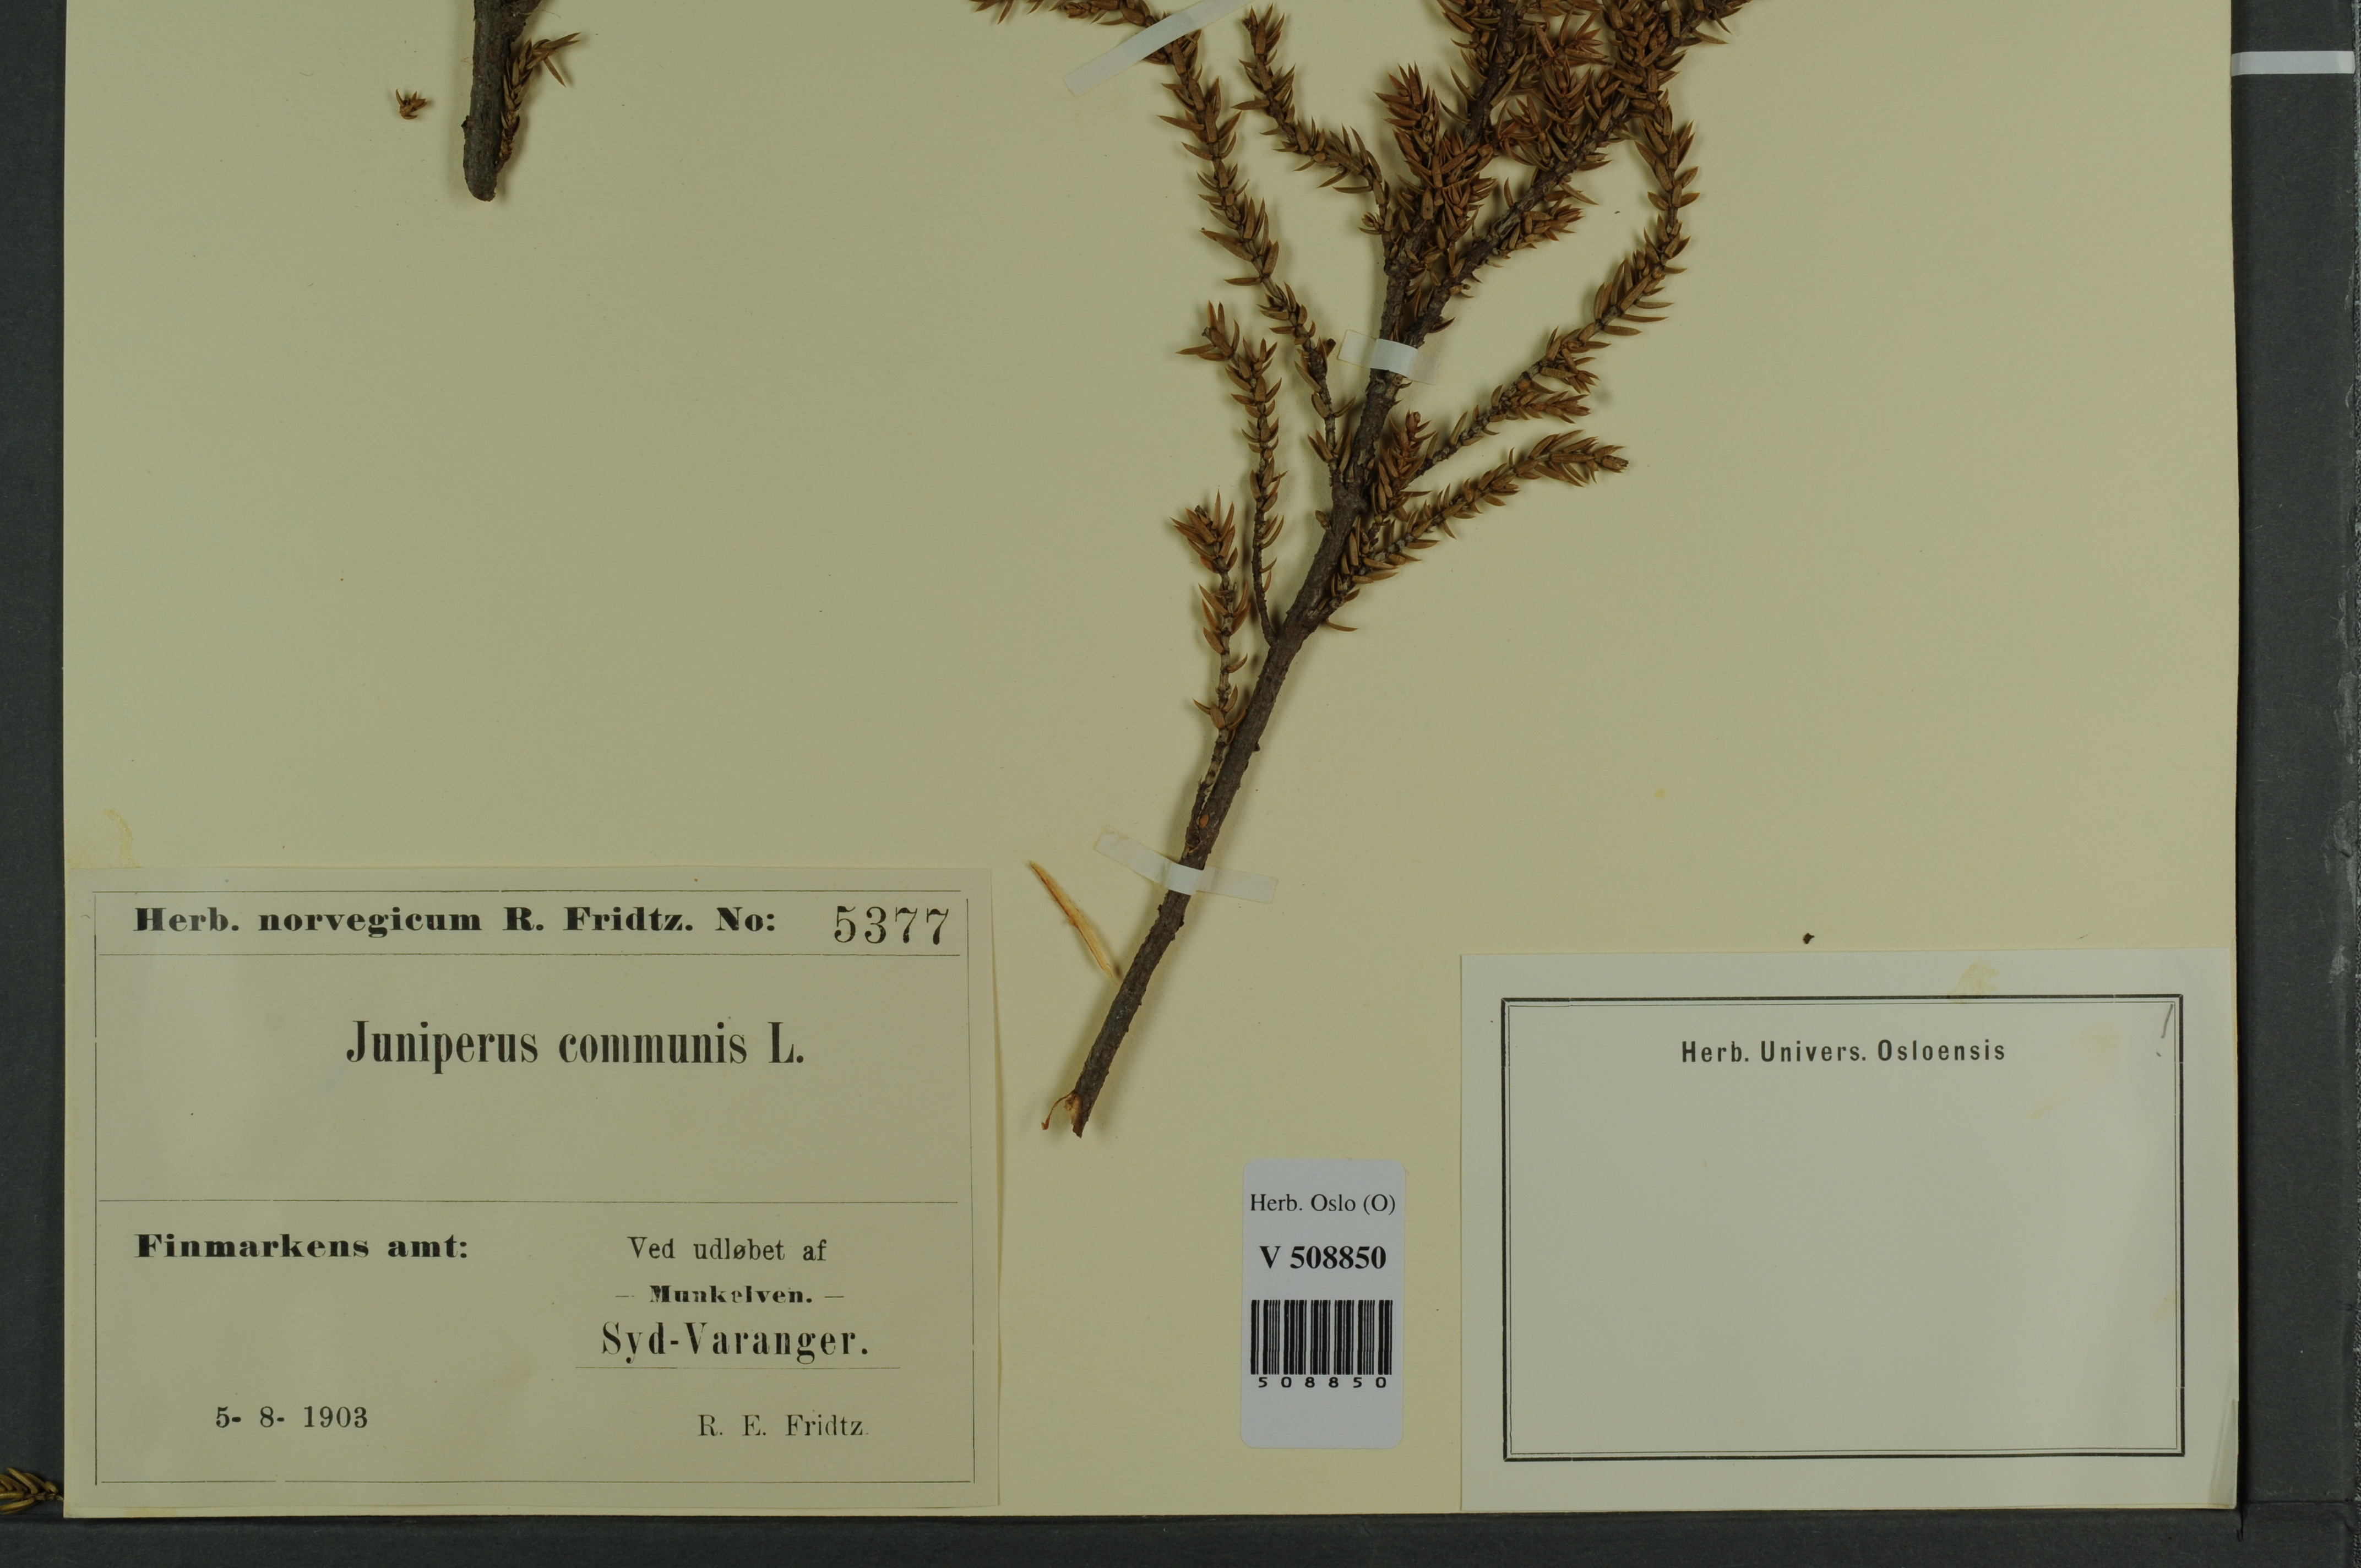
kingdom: Plantae
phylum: Tracheophyta
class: Pinopsida
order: Pinales
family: Cupressaceae
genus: Juniperus
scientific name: Juniperus communis
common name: Common juniper
